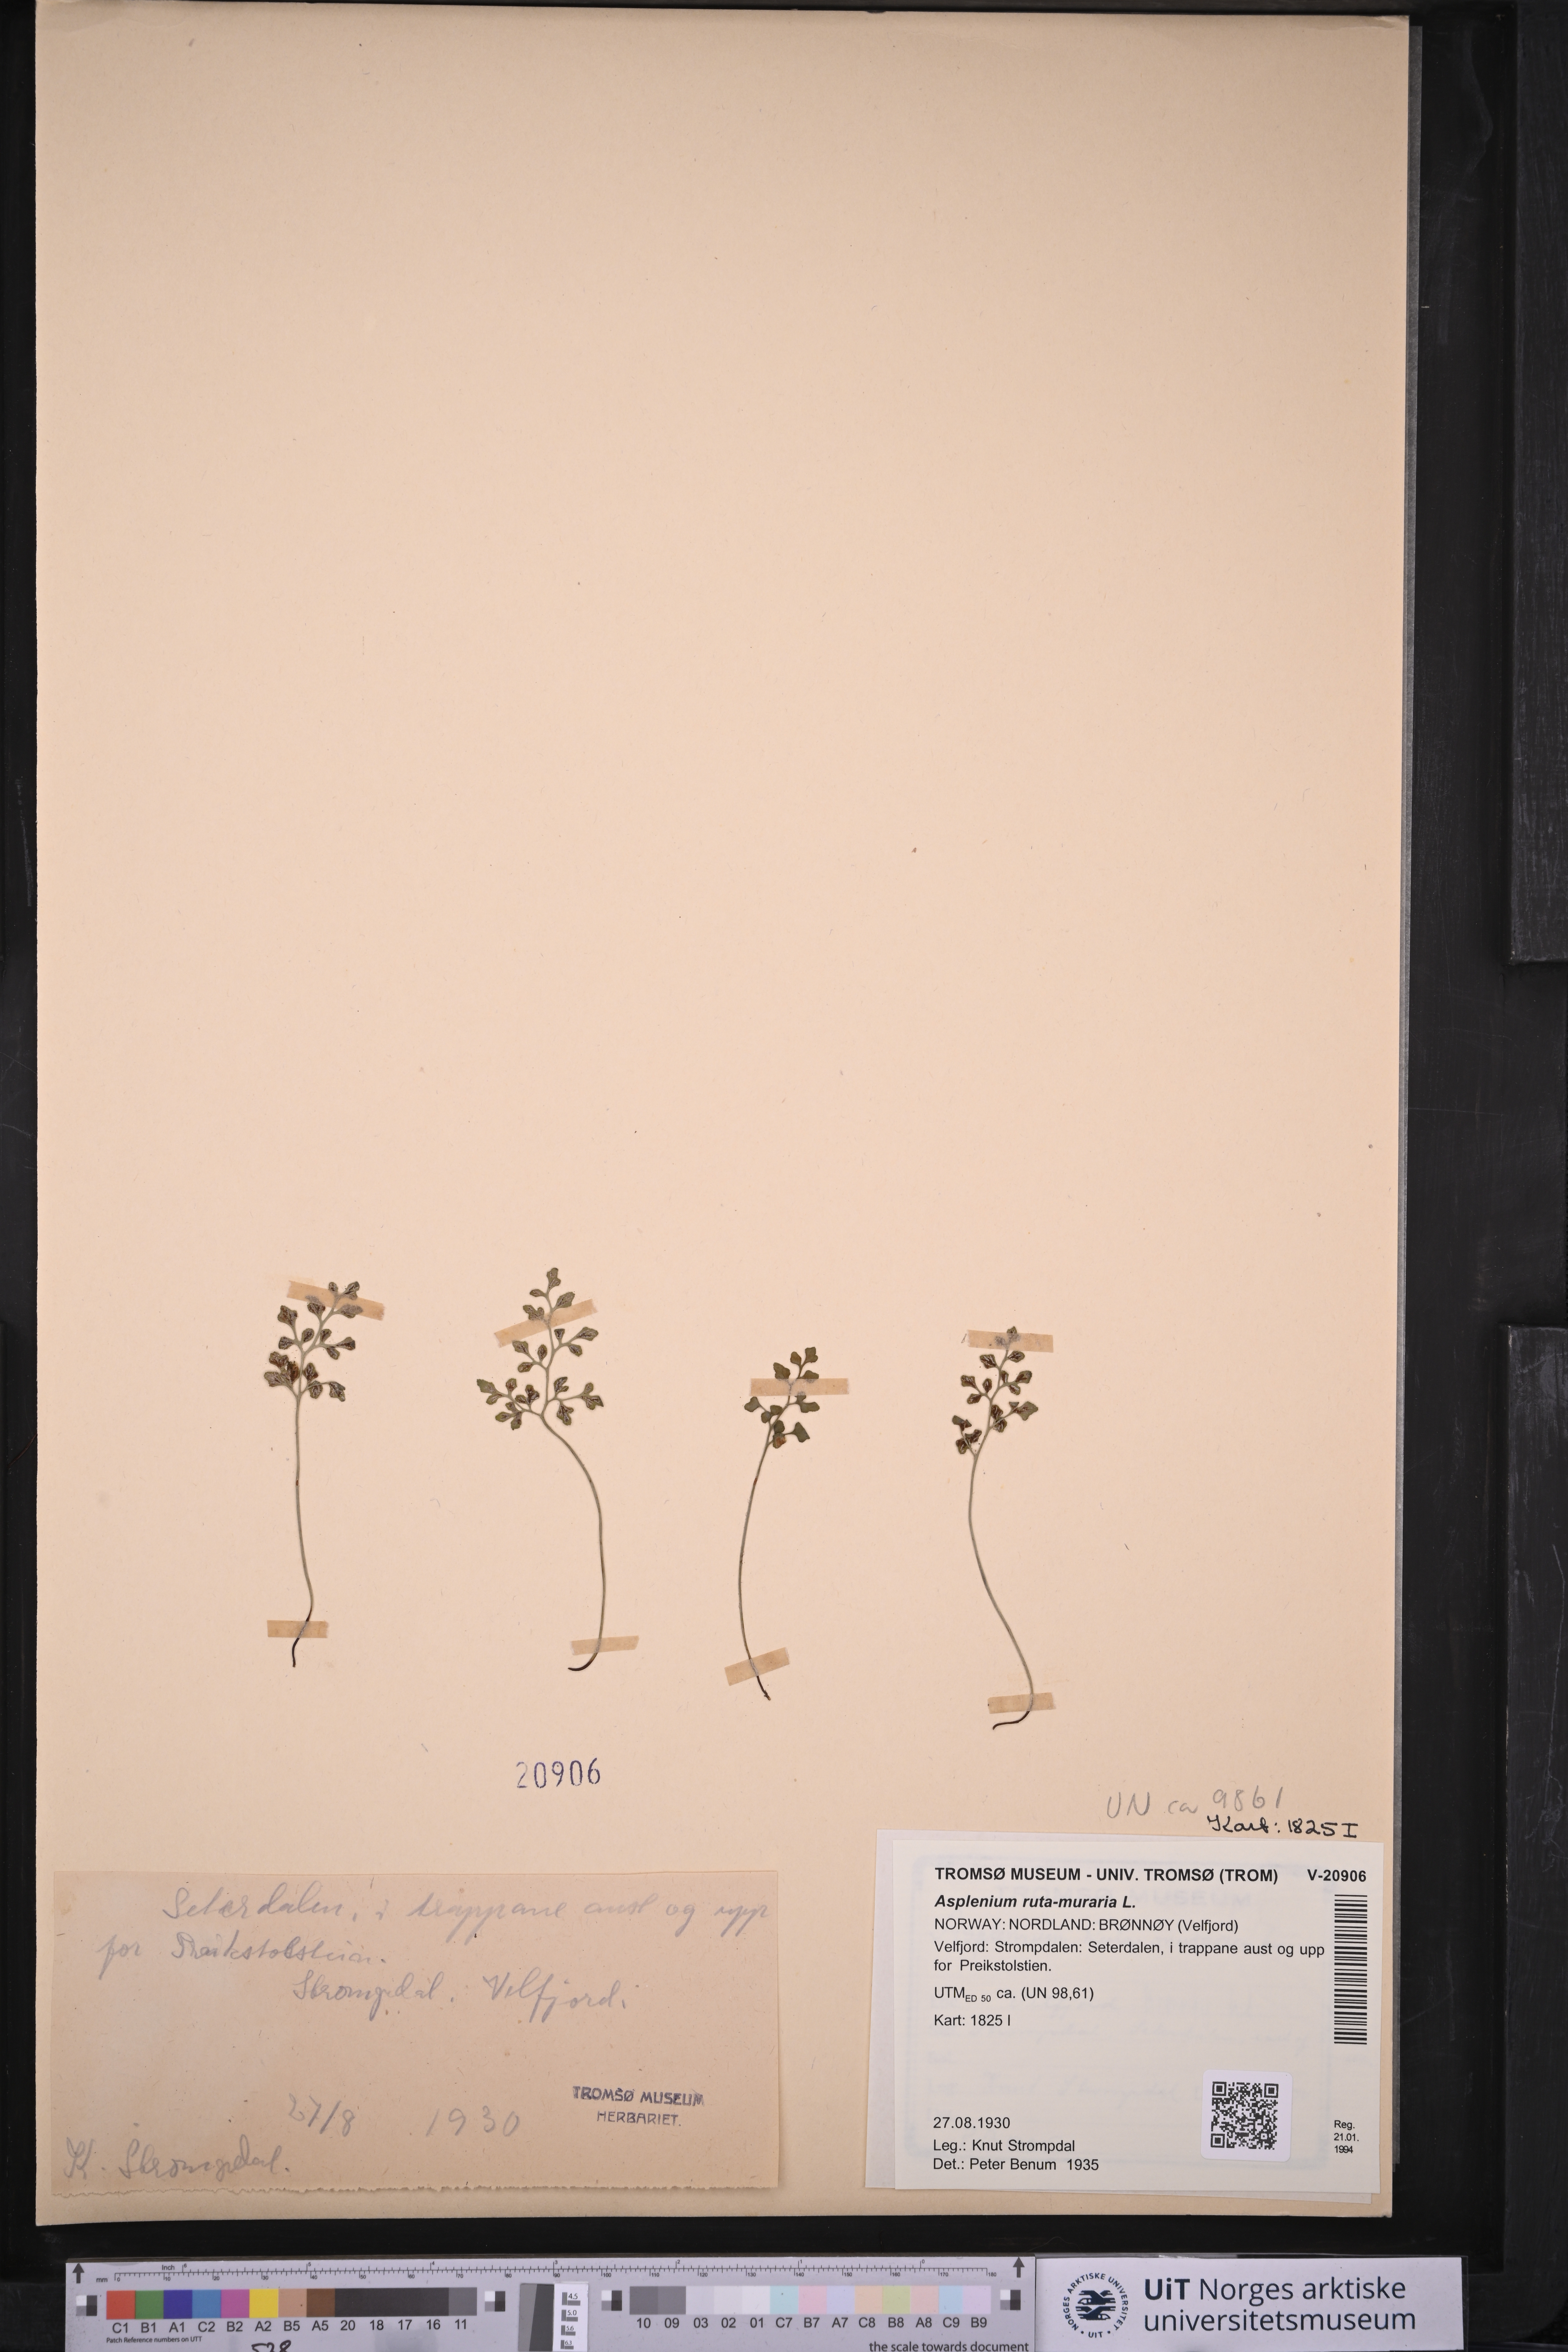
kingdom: Plantae
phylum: Tracheophyta
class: Polypodiopsida
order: Polypodiales
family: Aspleniaceae
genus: Asplenium
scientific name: Asplenium ruta-muraria
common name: Wall-rue
